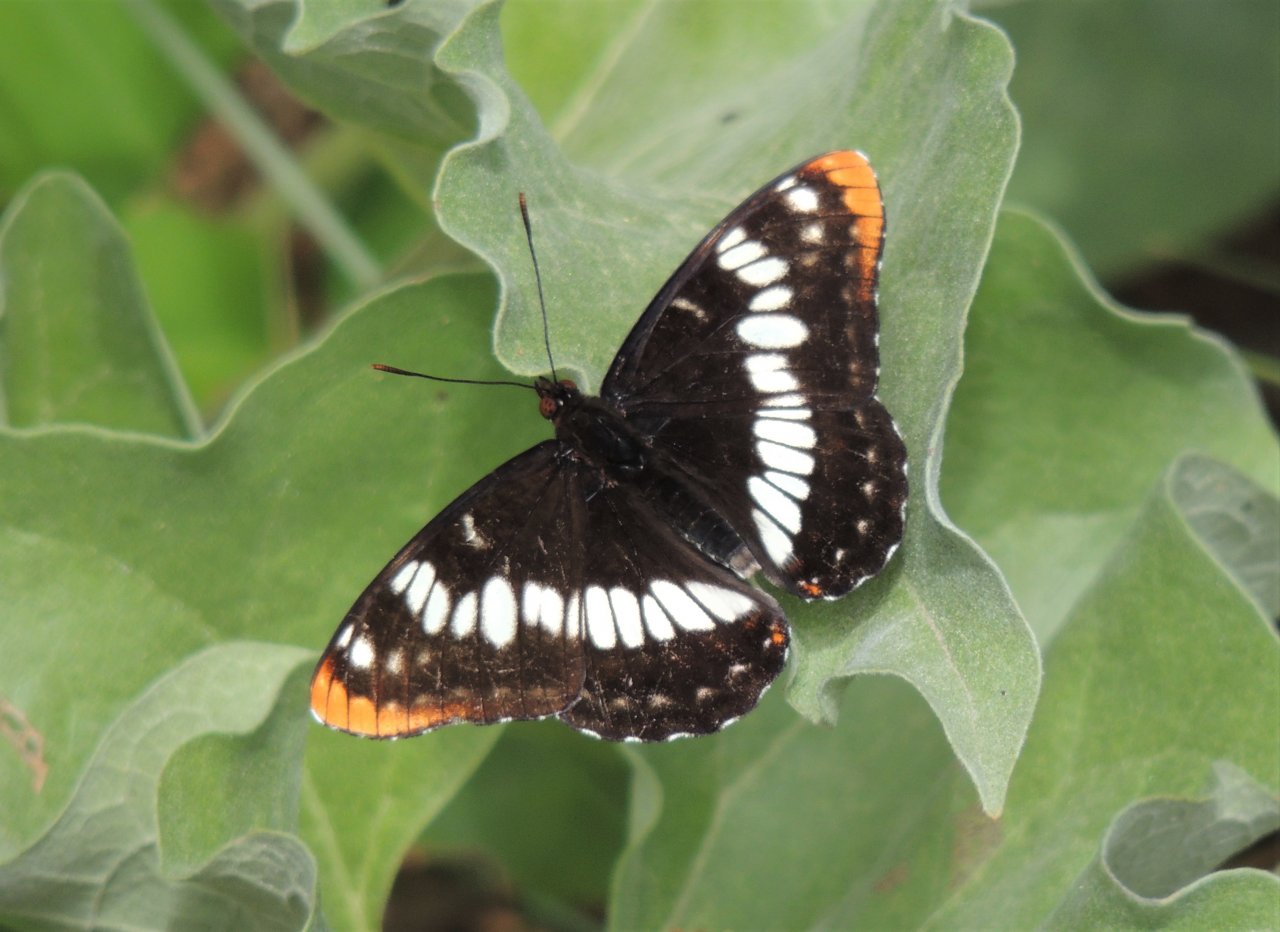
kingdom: Animalia
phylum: Arthropoda
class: Insecta
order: Lepidoptera
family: Nymphalidae
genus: Limenitis
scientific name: Limenitis lorquini
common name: Lorquin's Admiral
